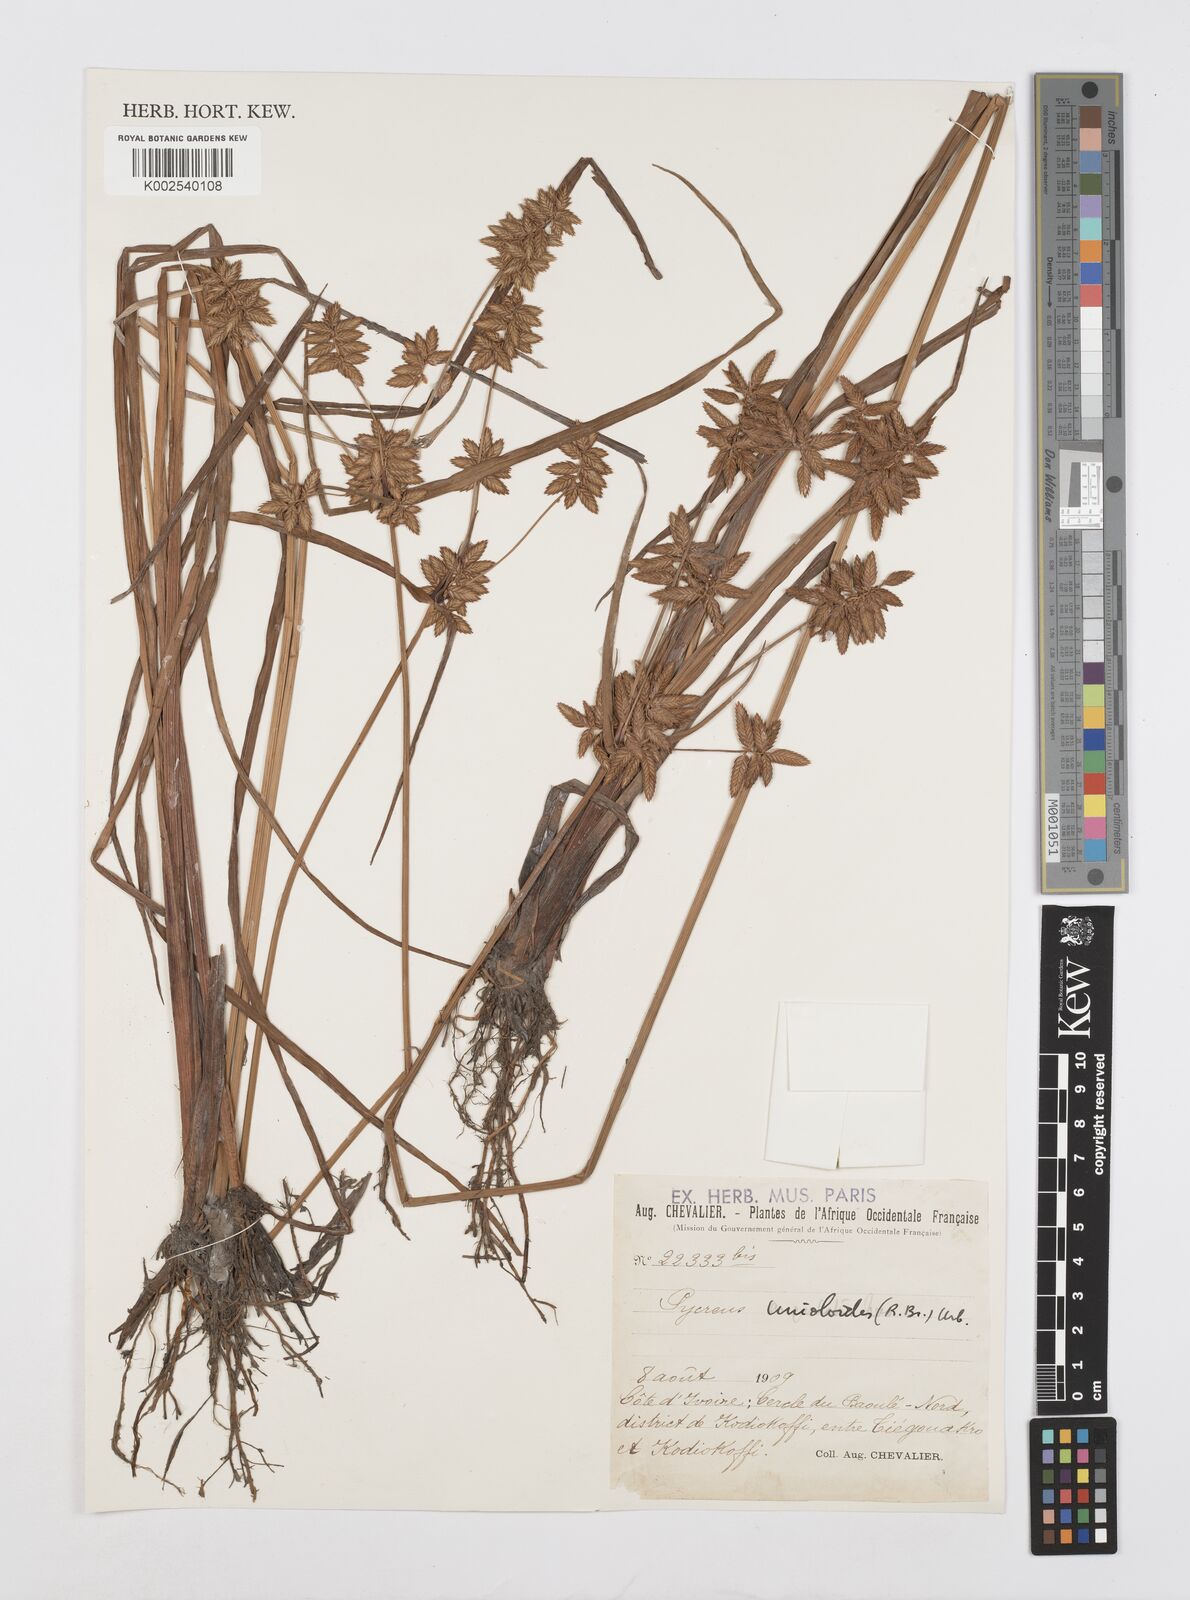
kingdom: Plantae
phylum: Tracheophyta
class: Liliopsida
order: Poales
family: Cyperaceae
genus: Cyperus
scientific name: Cyperus unioloides
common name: Uniola flatsedge
